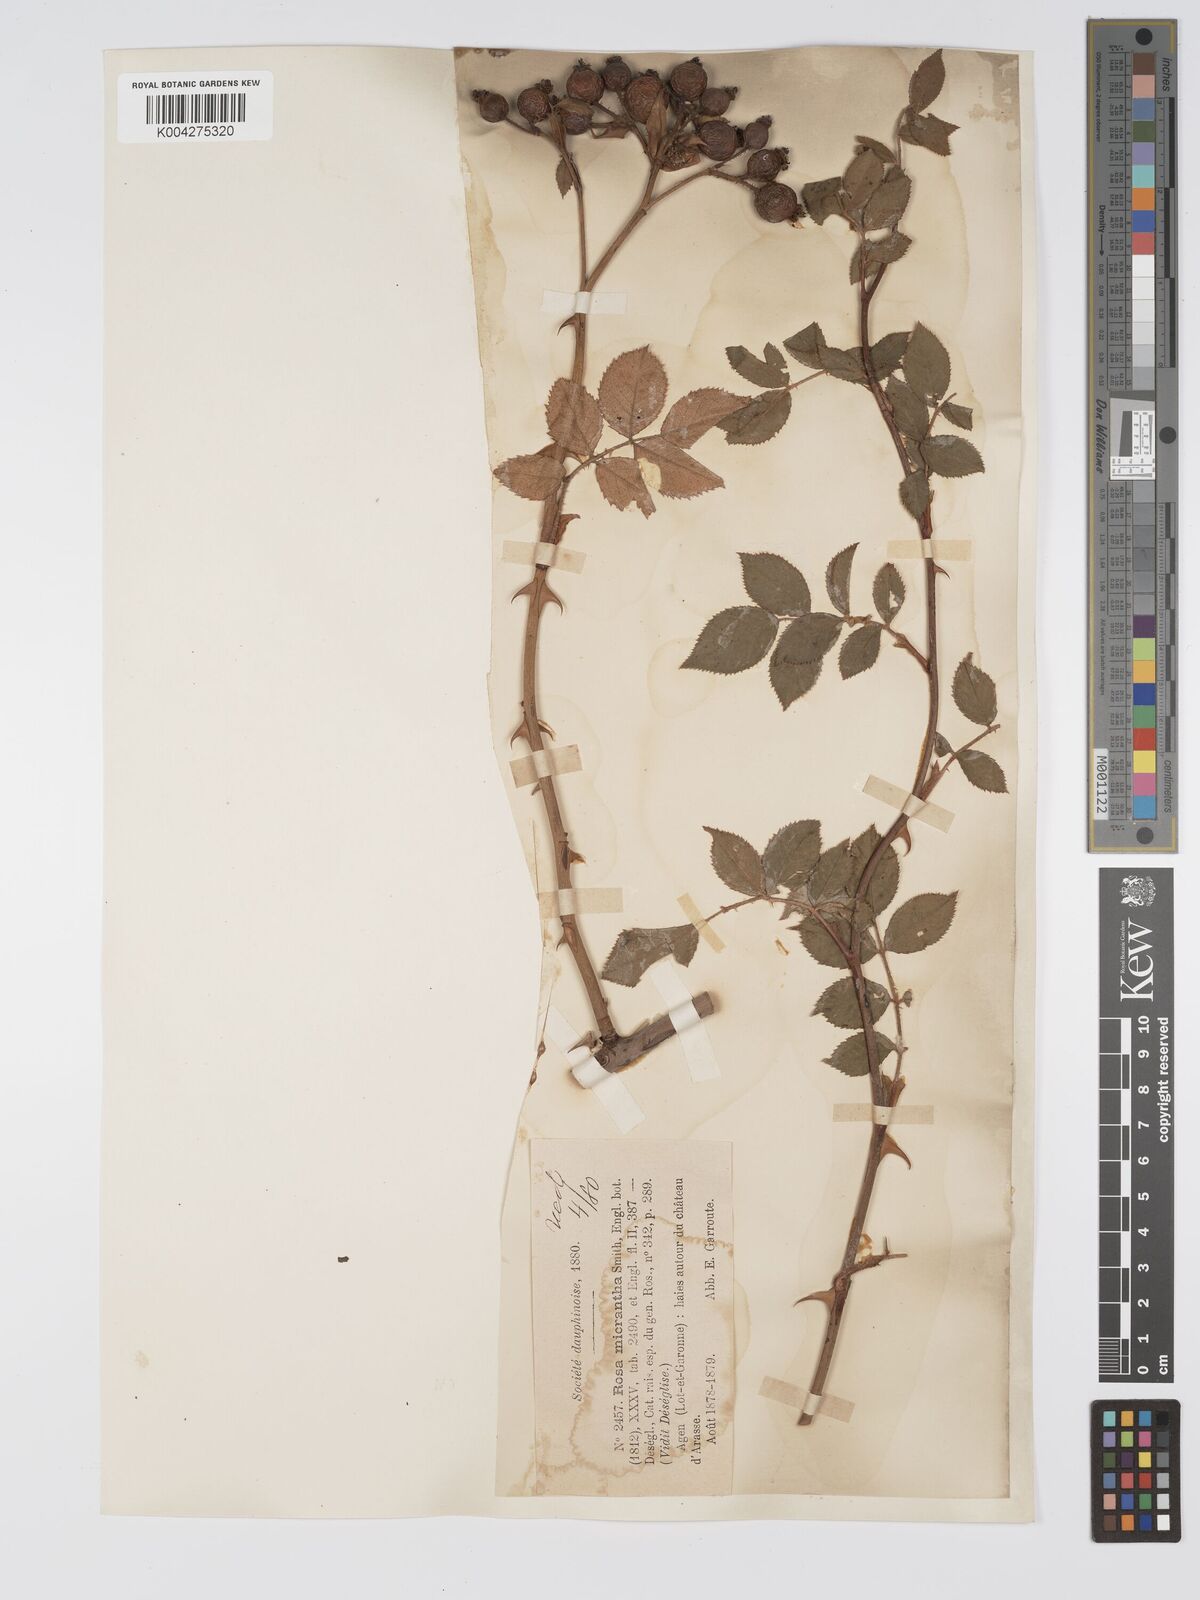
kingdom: Plantae
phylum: Tracheophyta
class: Magnoliopsida
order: Rosales
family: Rosaceae
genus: Rosa
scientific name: Rosa
